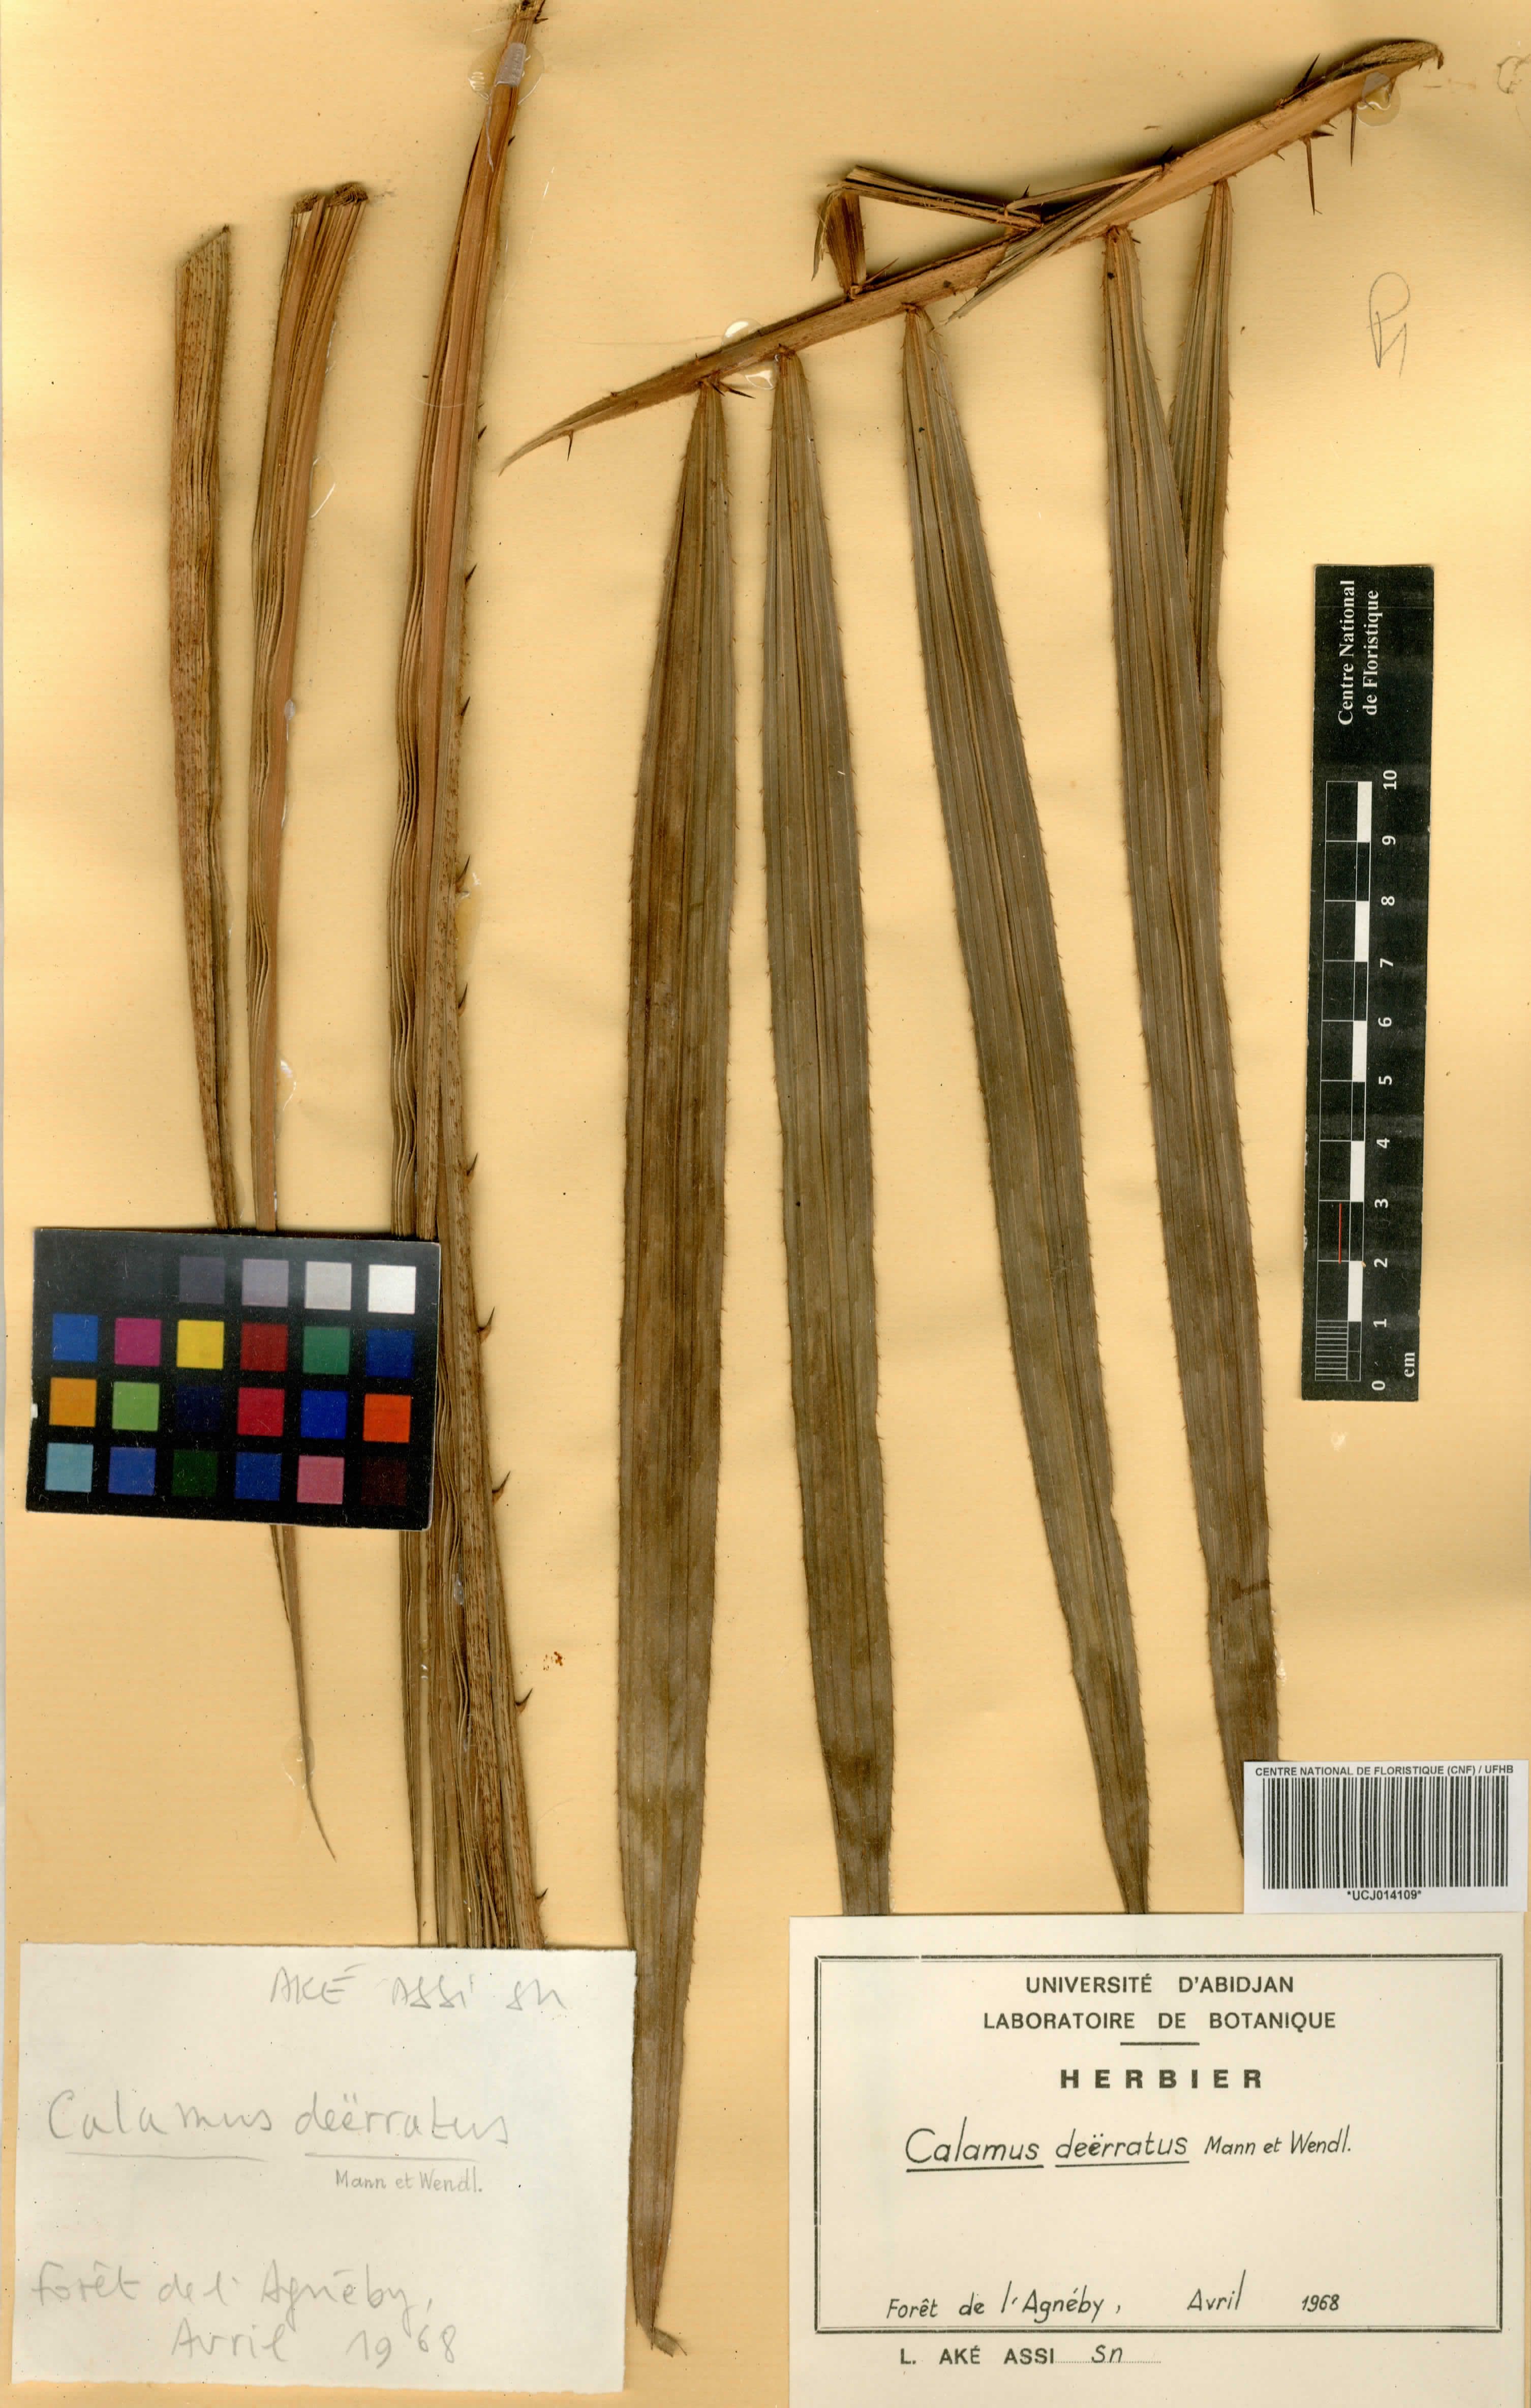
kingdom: Plantae
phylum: Tracheophyta
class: Liliopsida
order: Arecales
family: Arecaceae
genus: Calamus
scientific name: Calamus deerratus
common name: Rattan
